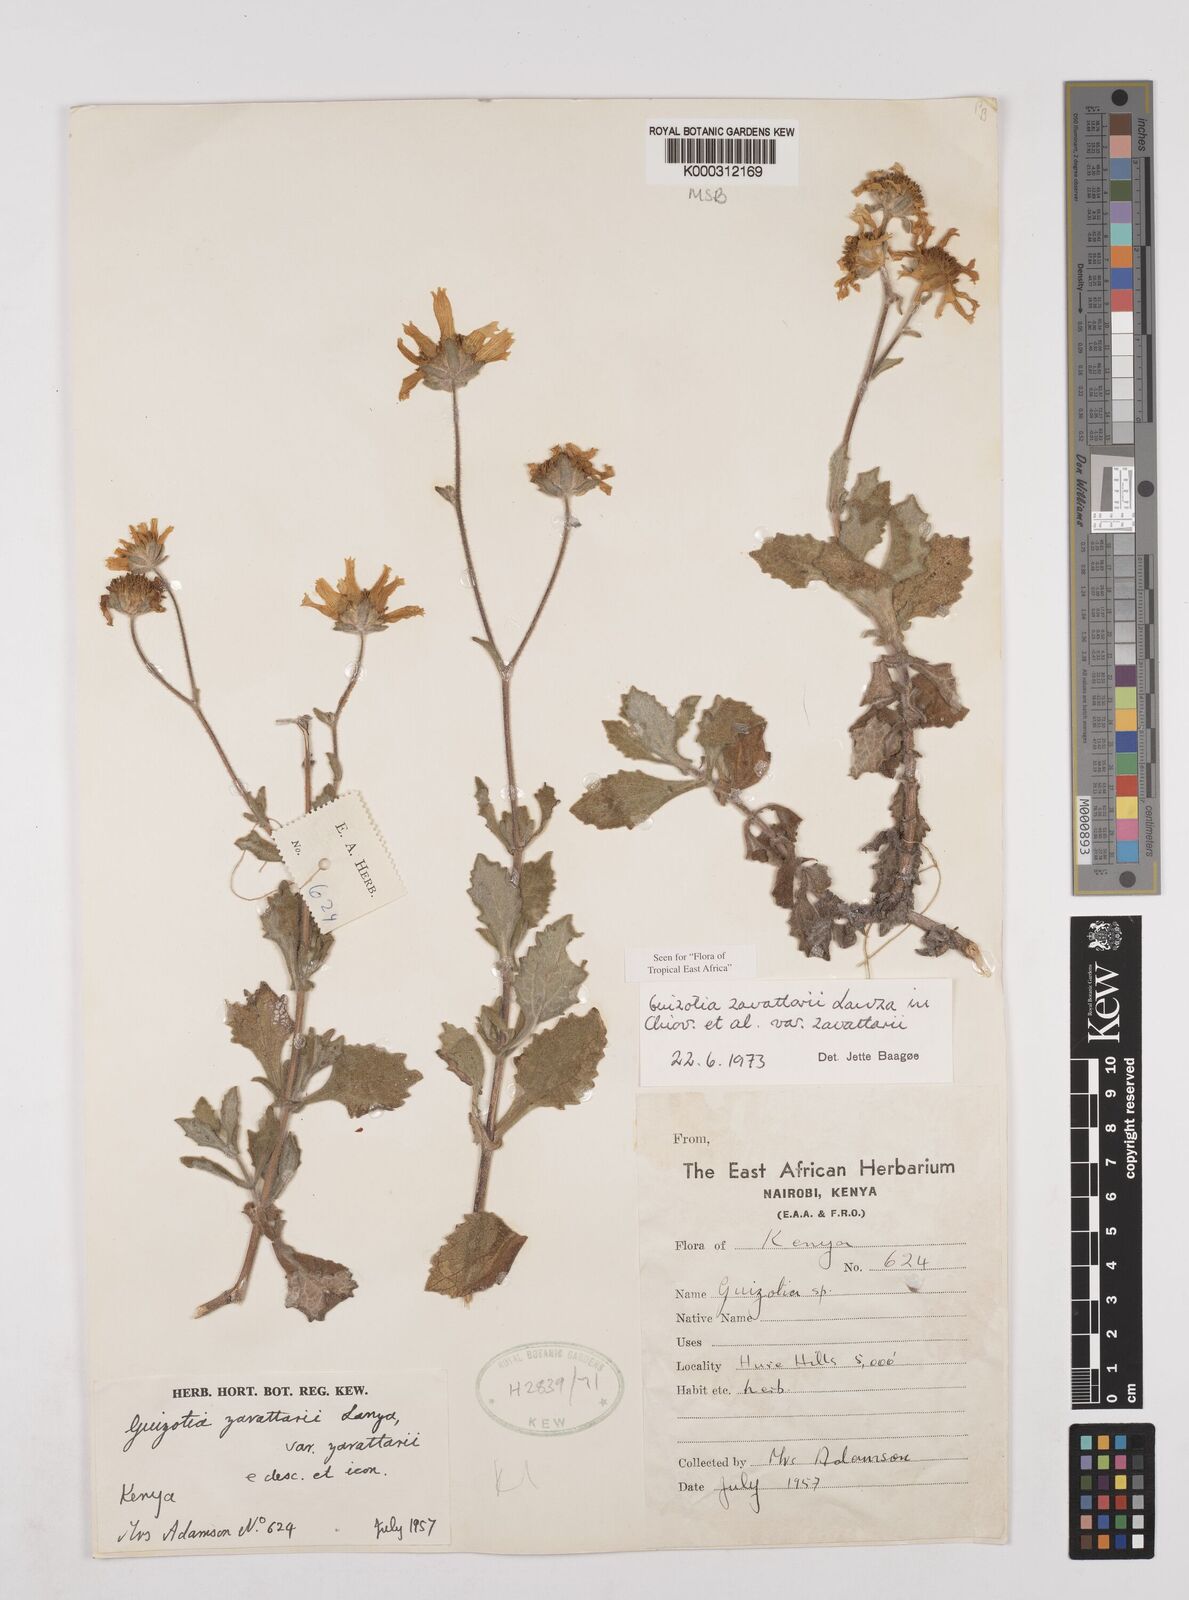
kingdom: Plantae
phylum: Tracheophyta
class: Magnoliopsida
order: Asterales
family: Asteraceae
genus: Guizotia
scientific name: Guizotia zavattarii
